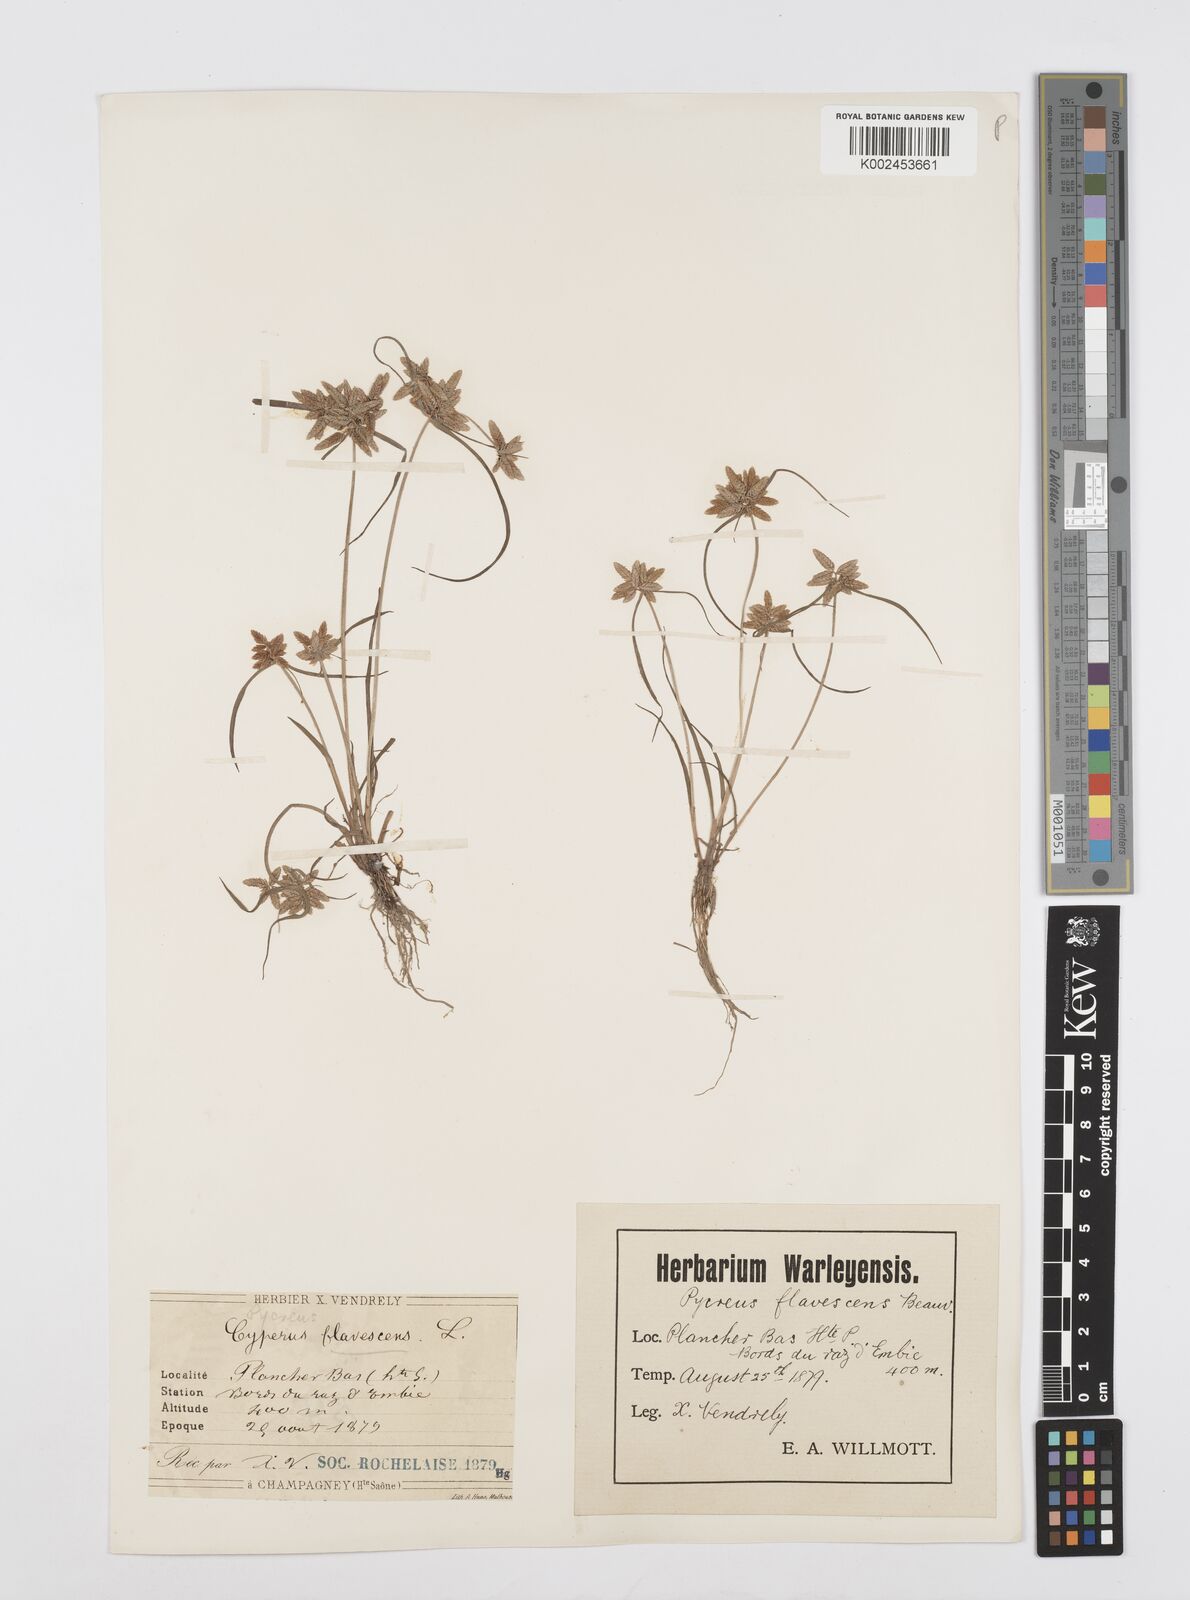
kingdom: Plantae
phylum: Tracheophyta
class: Liliopsida
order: Poales
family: Cyperaceae
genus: Cyperus
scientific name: Cyperus flavescens
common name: Yellow galingale
